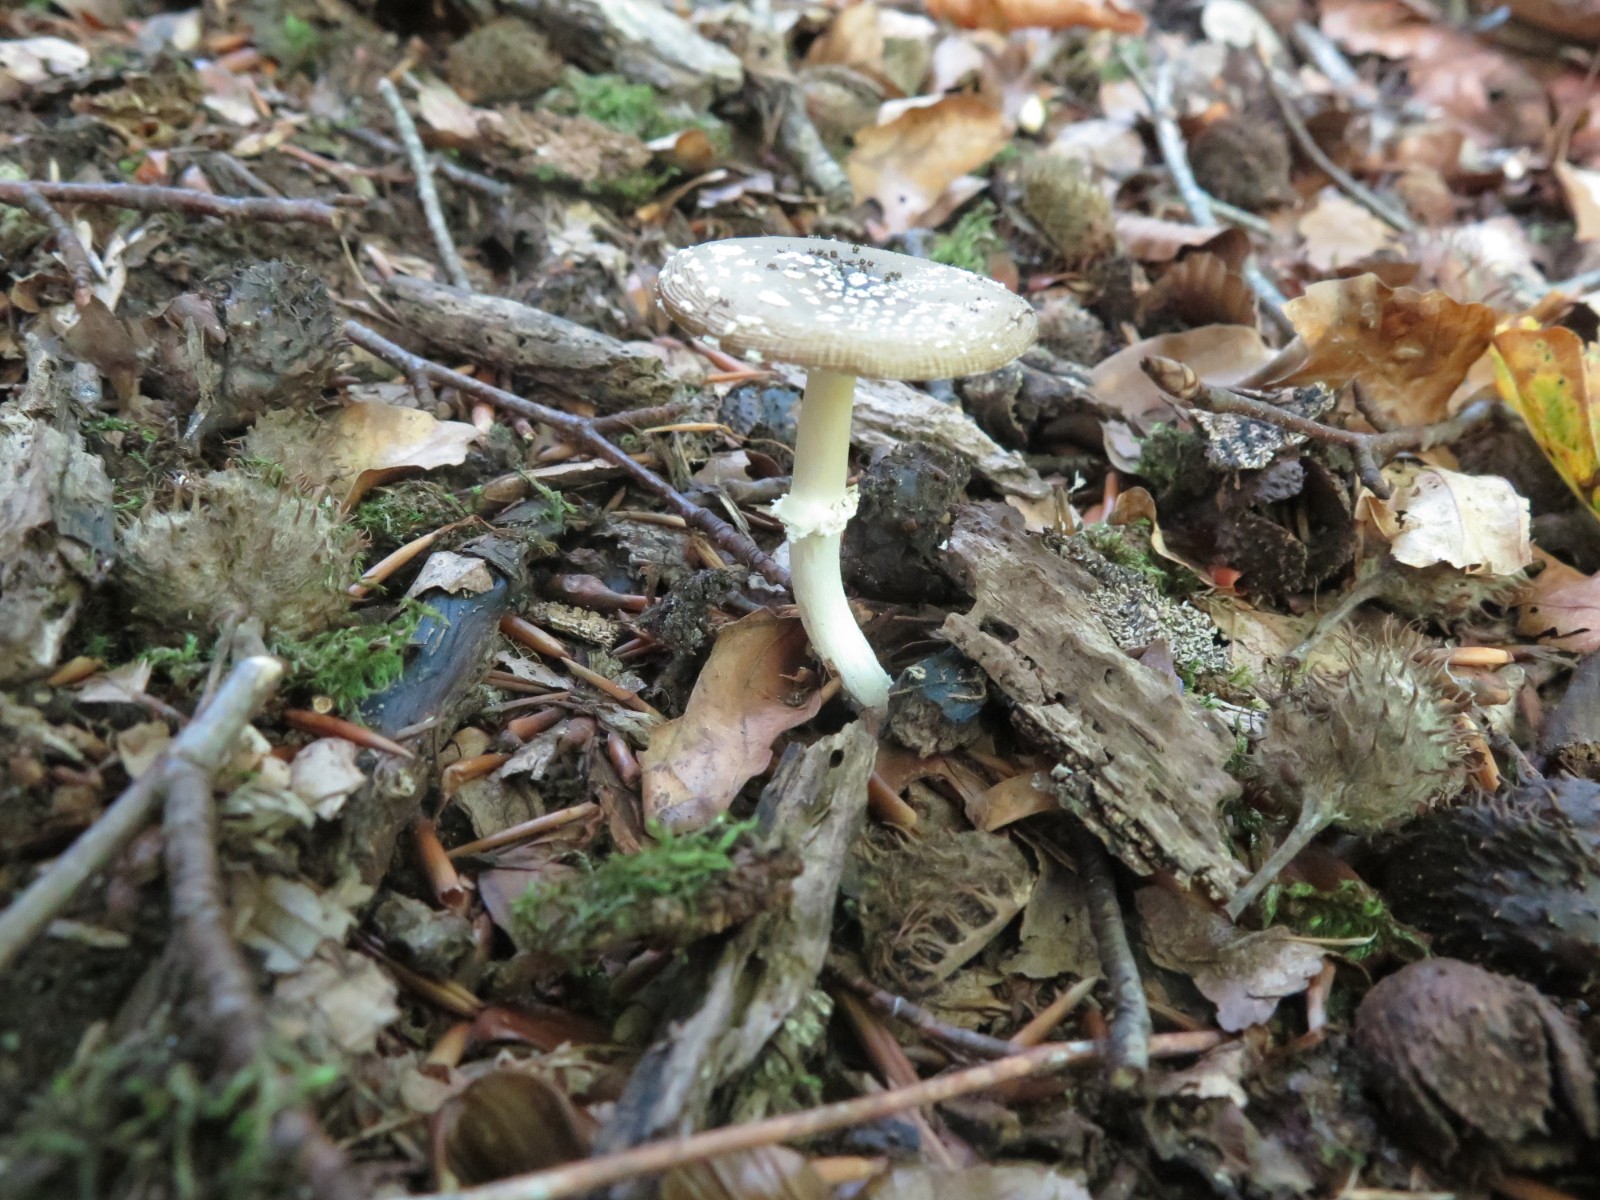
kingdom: Fungi
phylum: Basidiomycota
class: Agaricomycetes
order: Agaricales
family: Amanitaceae
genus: Amanita
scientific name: Amanita pantherina
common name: panter-fluesvamp
